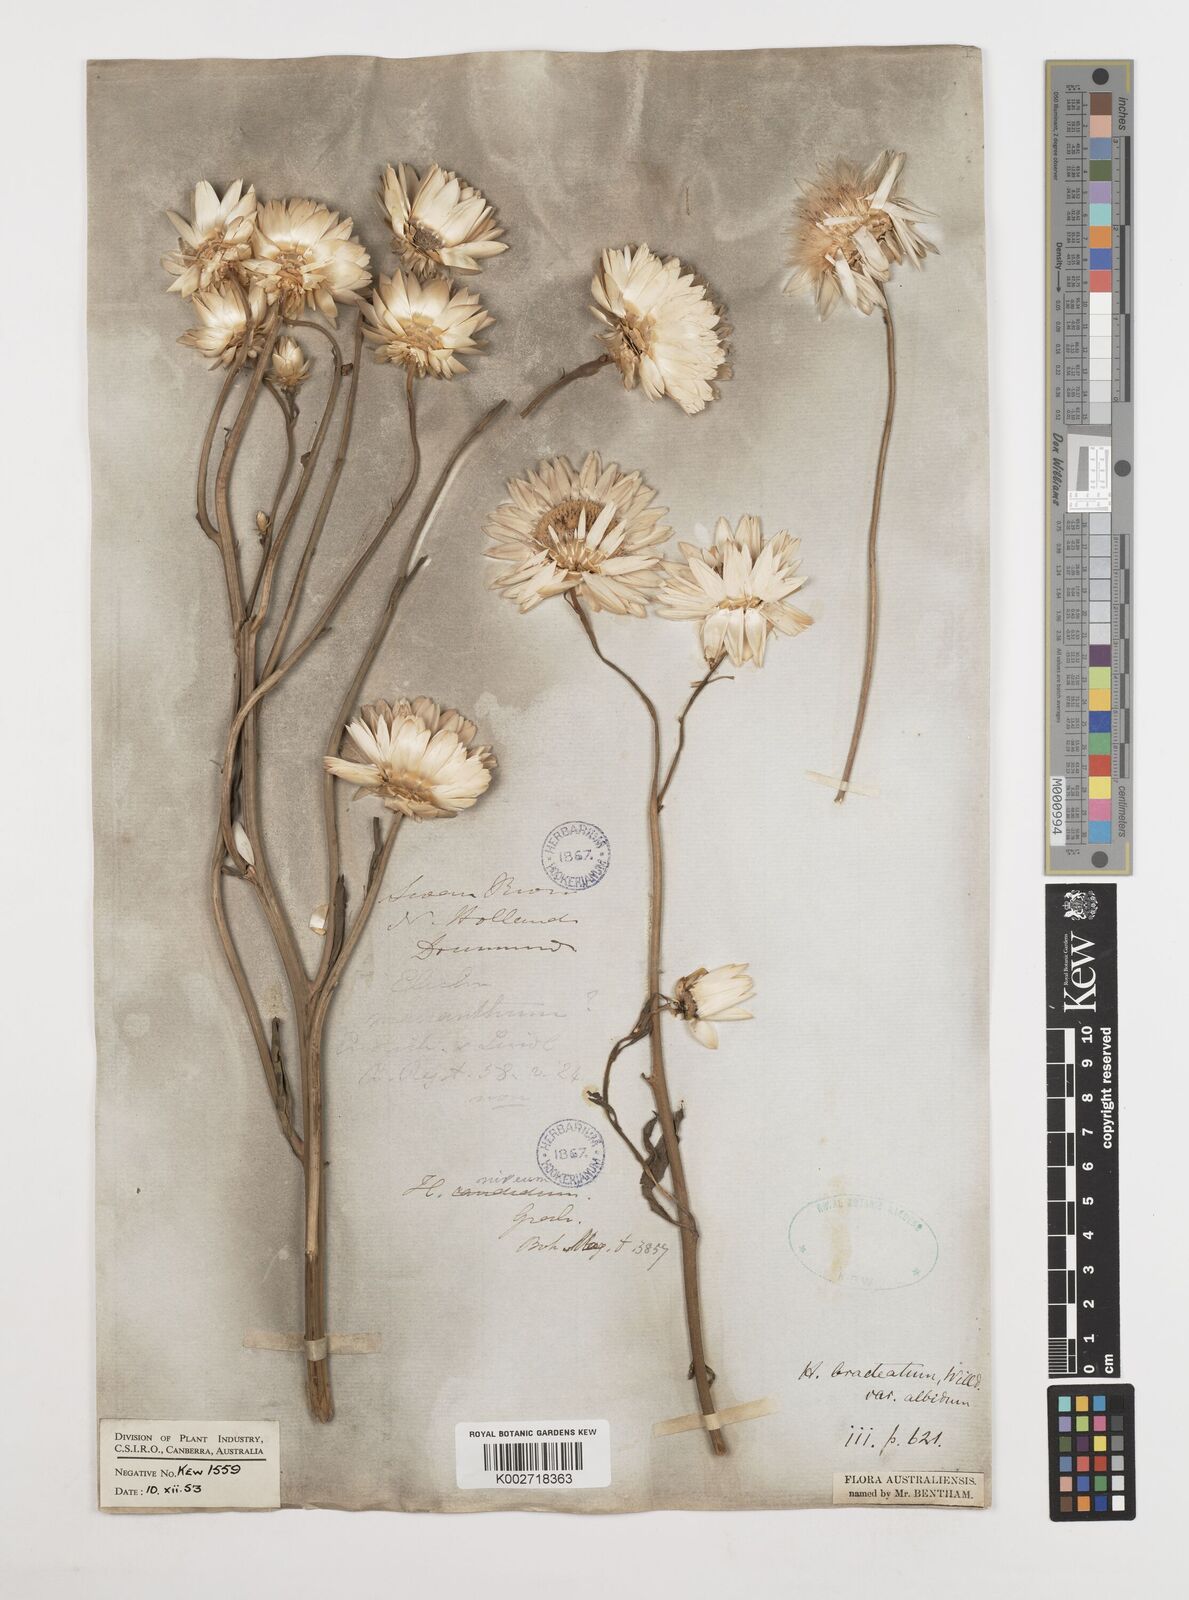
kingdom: Plantae
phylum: Tracheophyta
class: Magnoliopsida
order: Asterales
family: Asteraceae
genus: Xerochrysum
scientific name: Xerochrysum bracteatum
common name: Bracted strawflower
